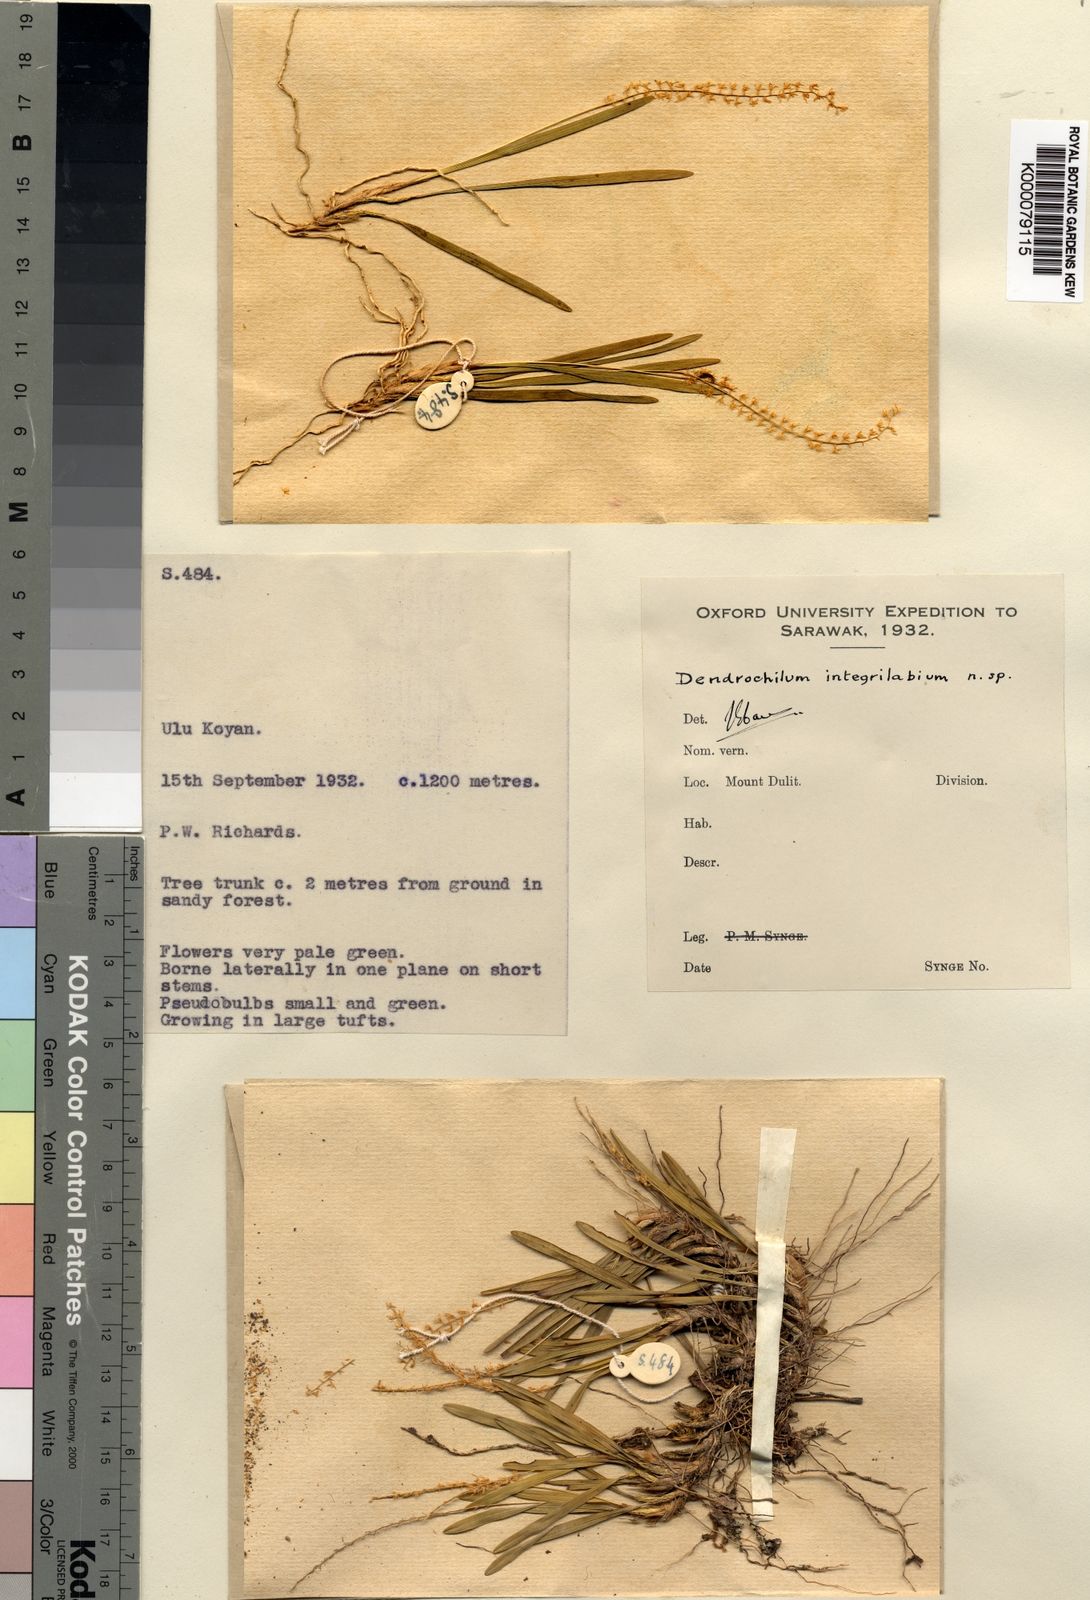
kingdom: Plantae
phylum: Tracheophyta
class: Liliopsida
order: Asparagales
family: Orchidaceae
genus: Coelogyne
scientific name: Coelogyne totilabia
